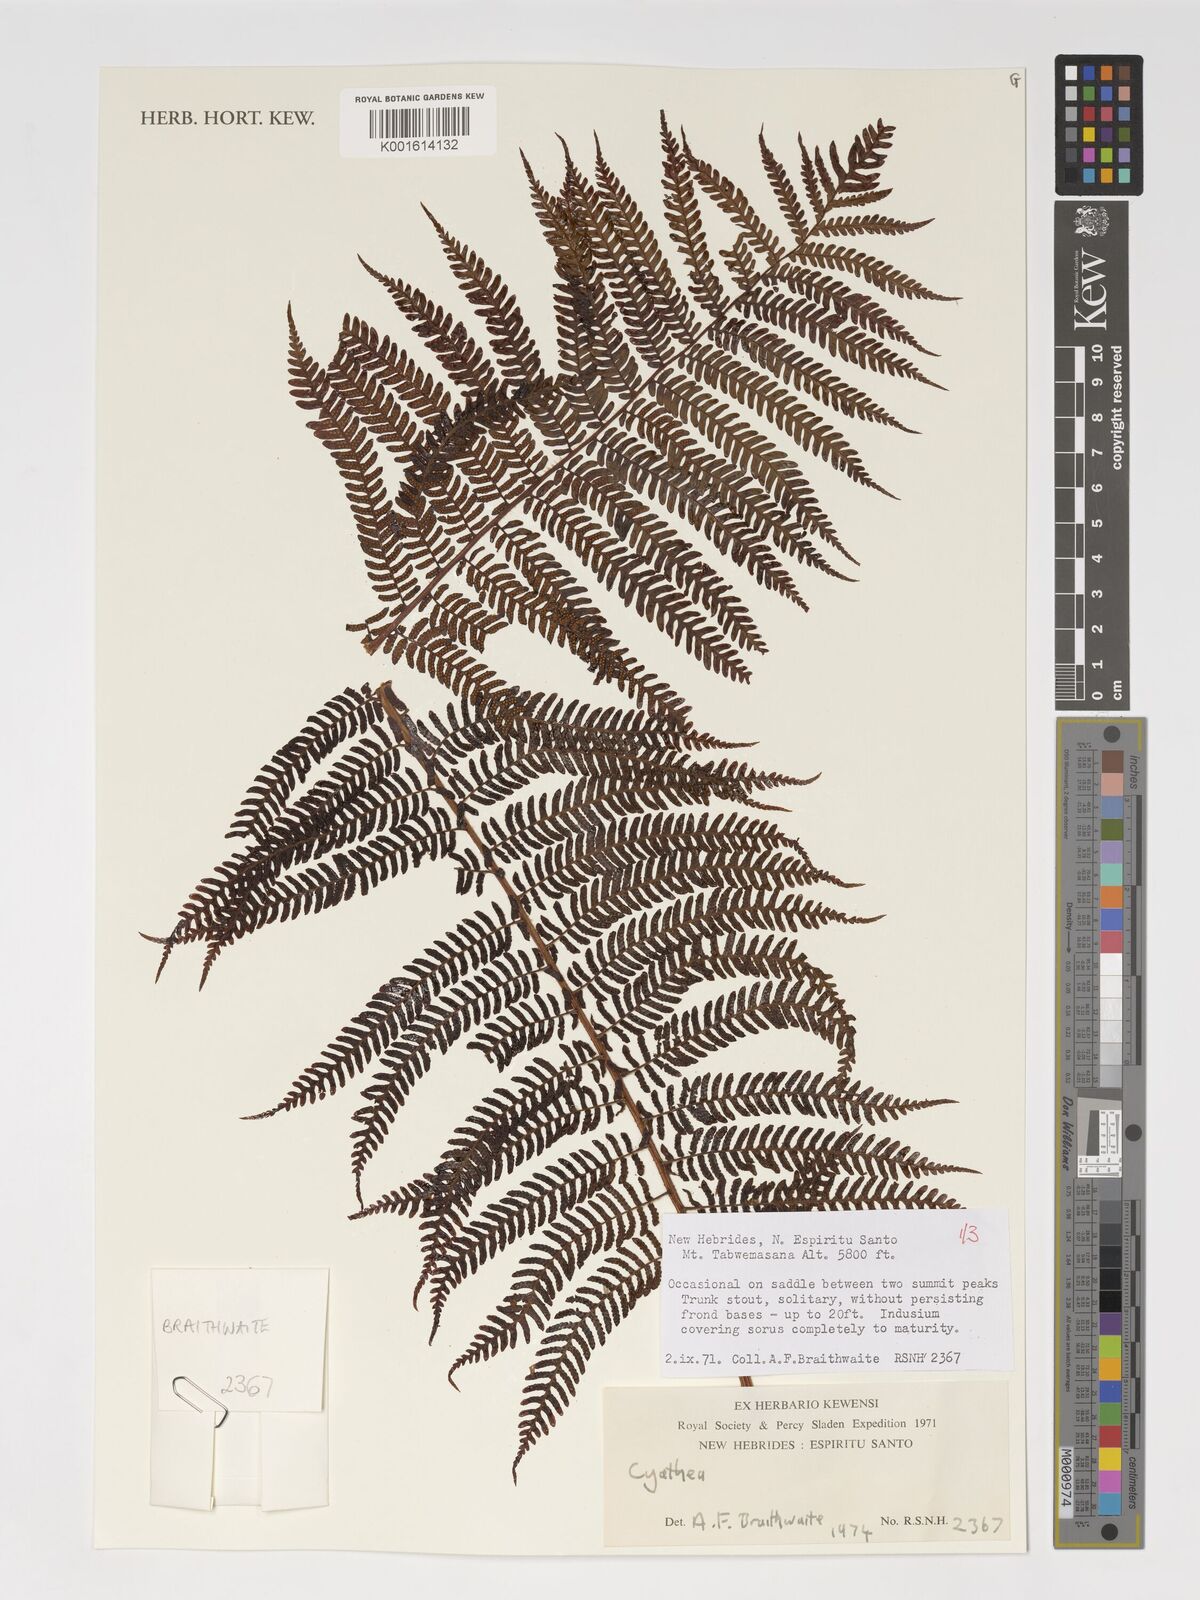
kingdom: Plantae
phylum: Tracheophyta
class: Polypodiopsida
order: Cyatheales
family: Cyatheaceae
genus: Cyathea
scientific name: Cyathea
